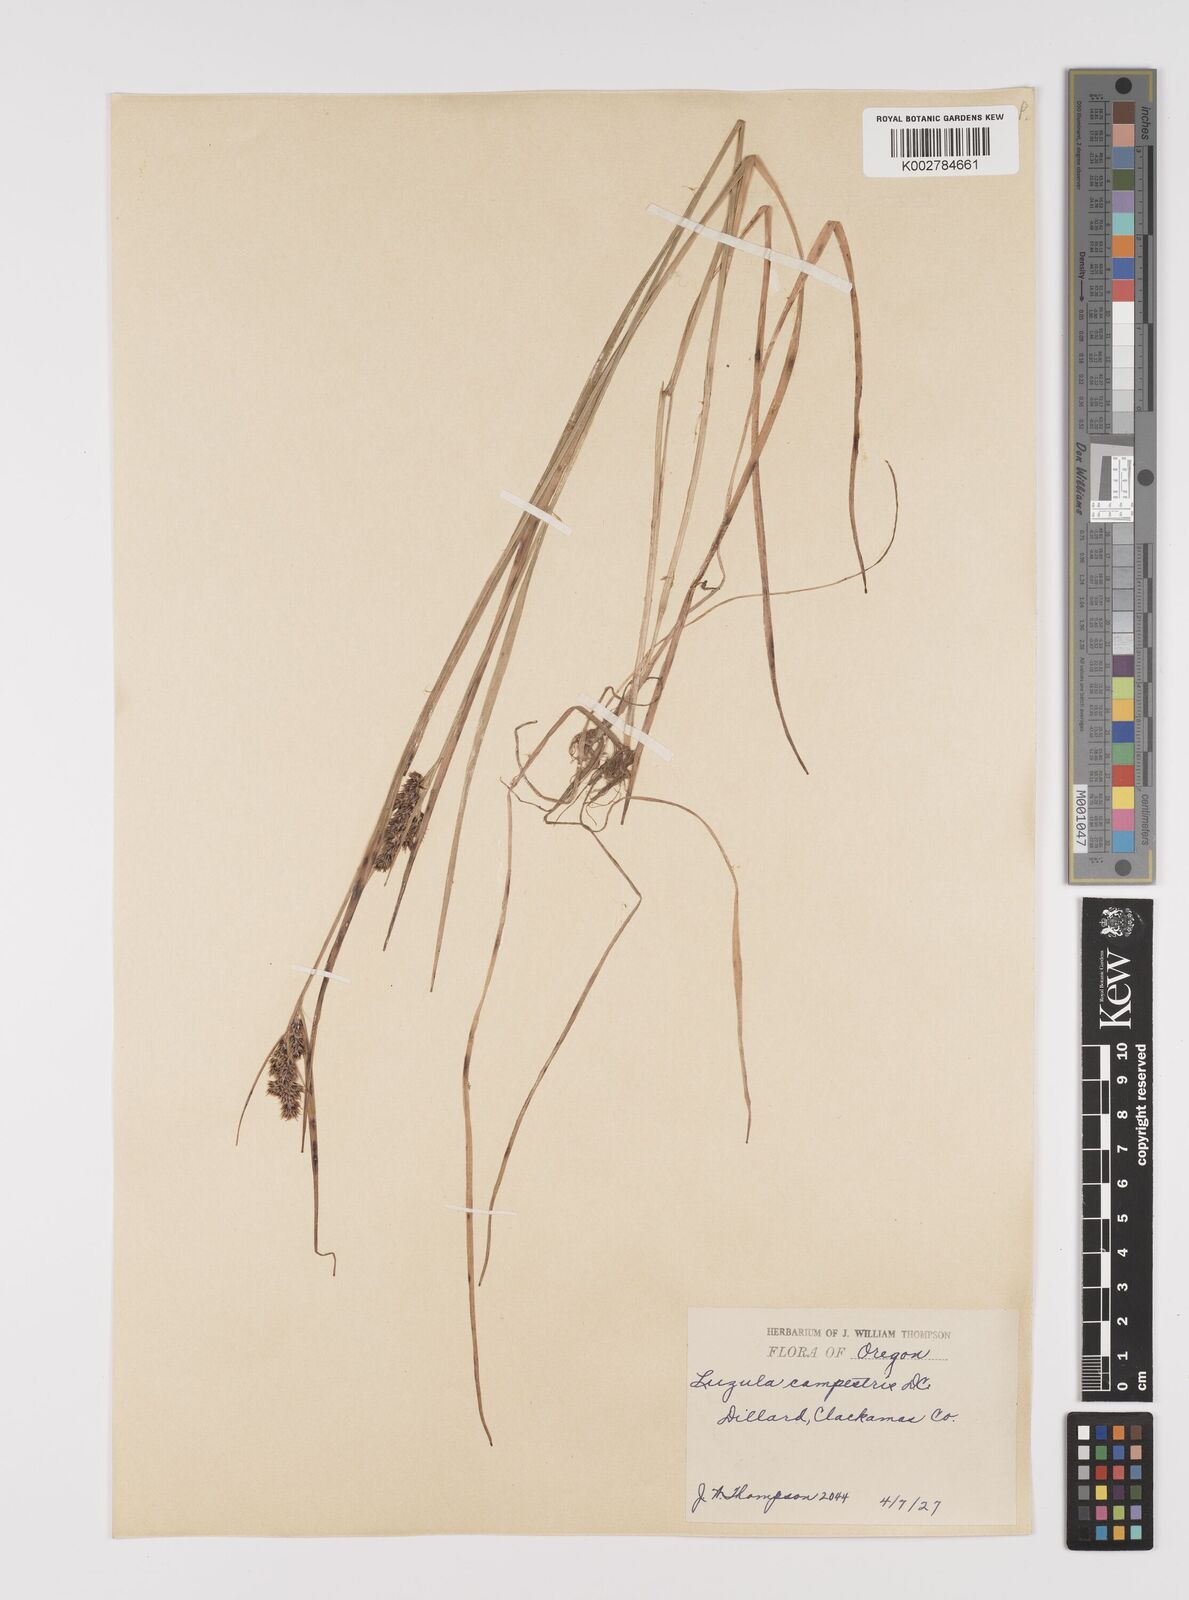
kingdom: Plantae
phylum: Tracheophyta
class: Liliopsida
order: Poales
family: Juncaceae
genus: Luzula
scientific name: Luzula campestris
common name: Field wood-rush
